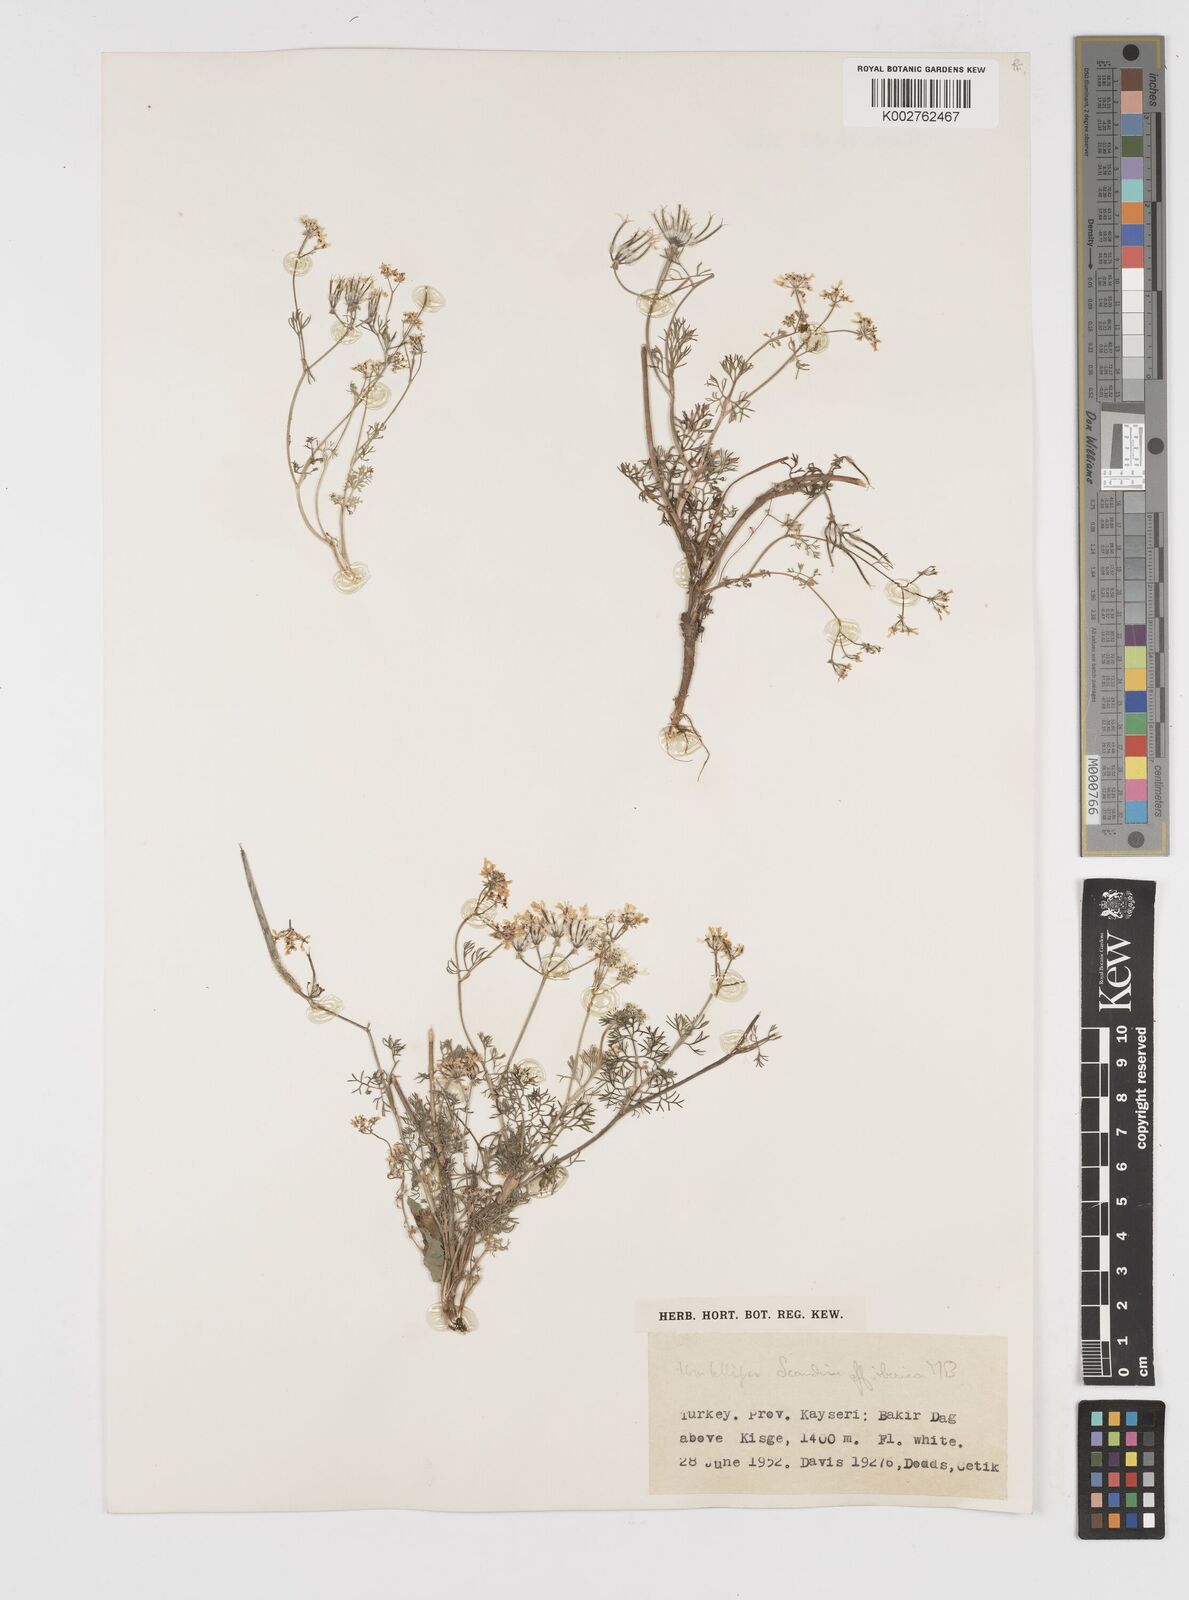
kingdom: Plantae
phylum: Tracheophyta
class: Magnoliopsida
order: Apiales
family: Apiaceae
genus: Scandix
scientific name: Scandix iberica
